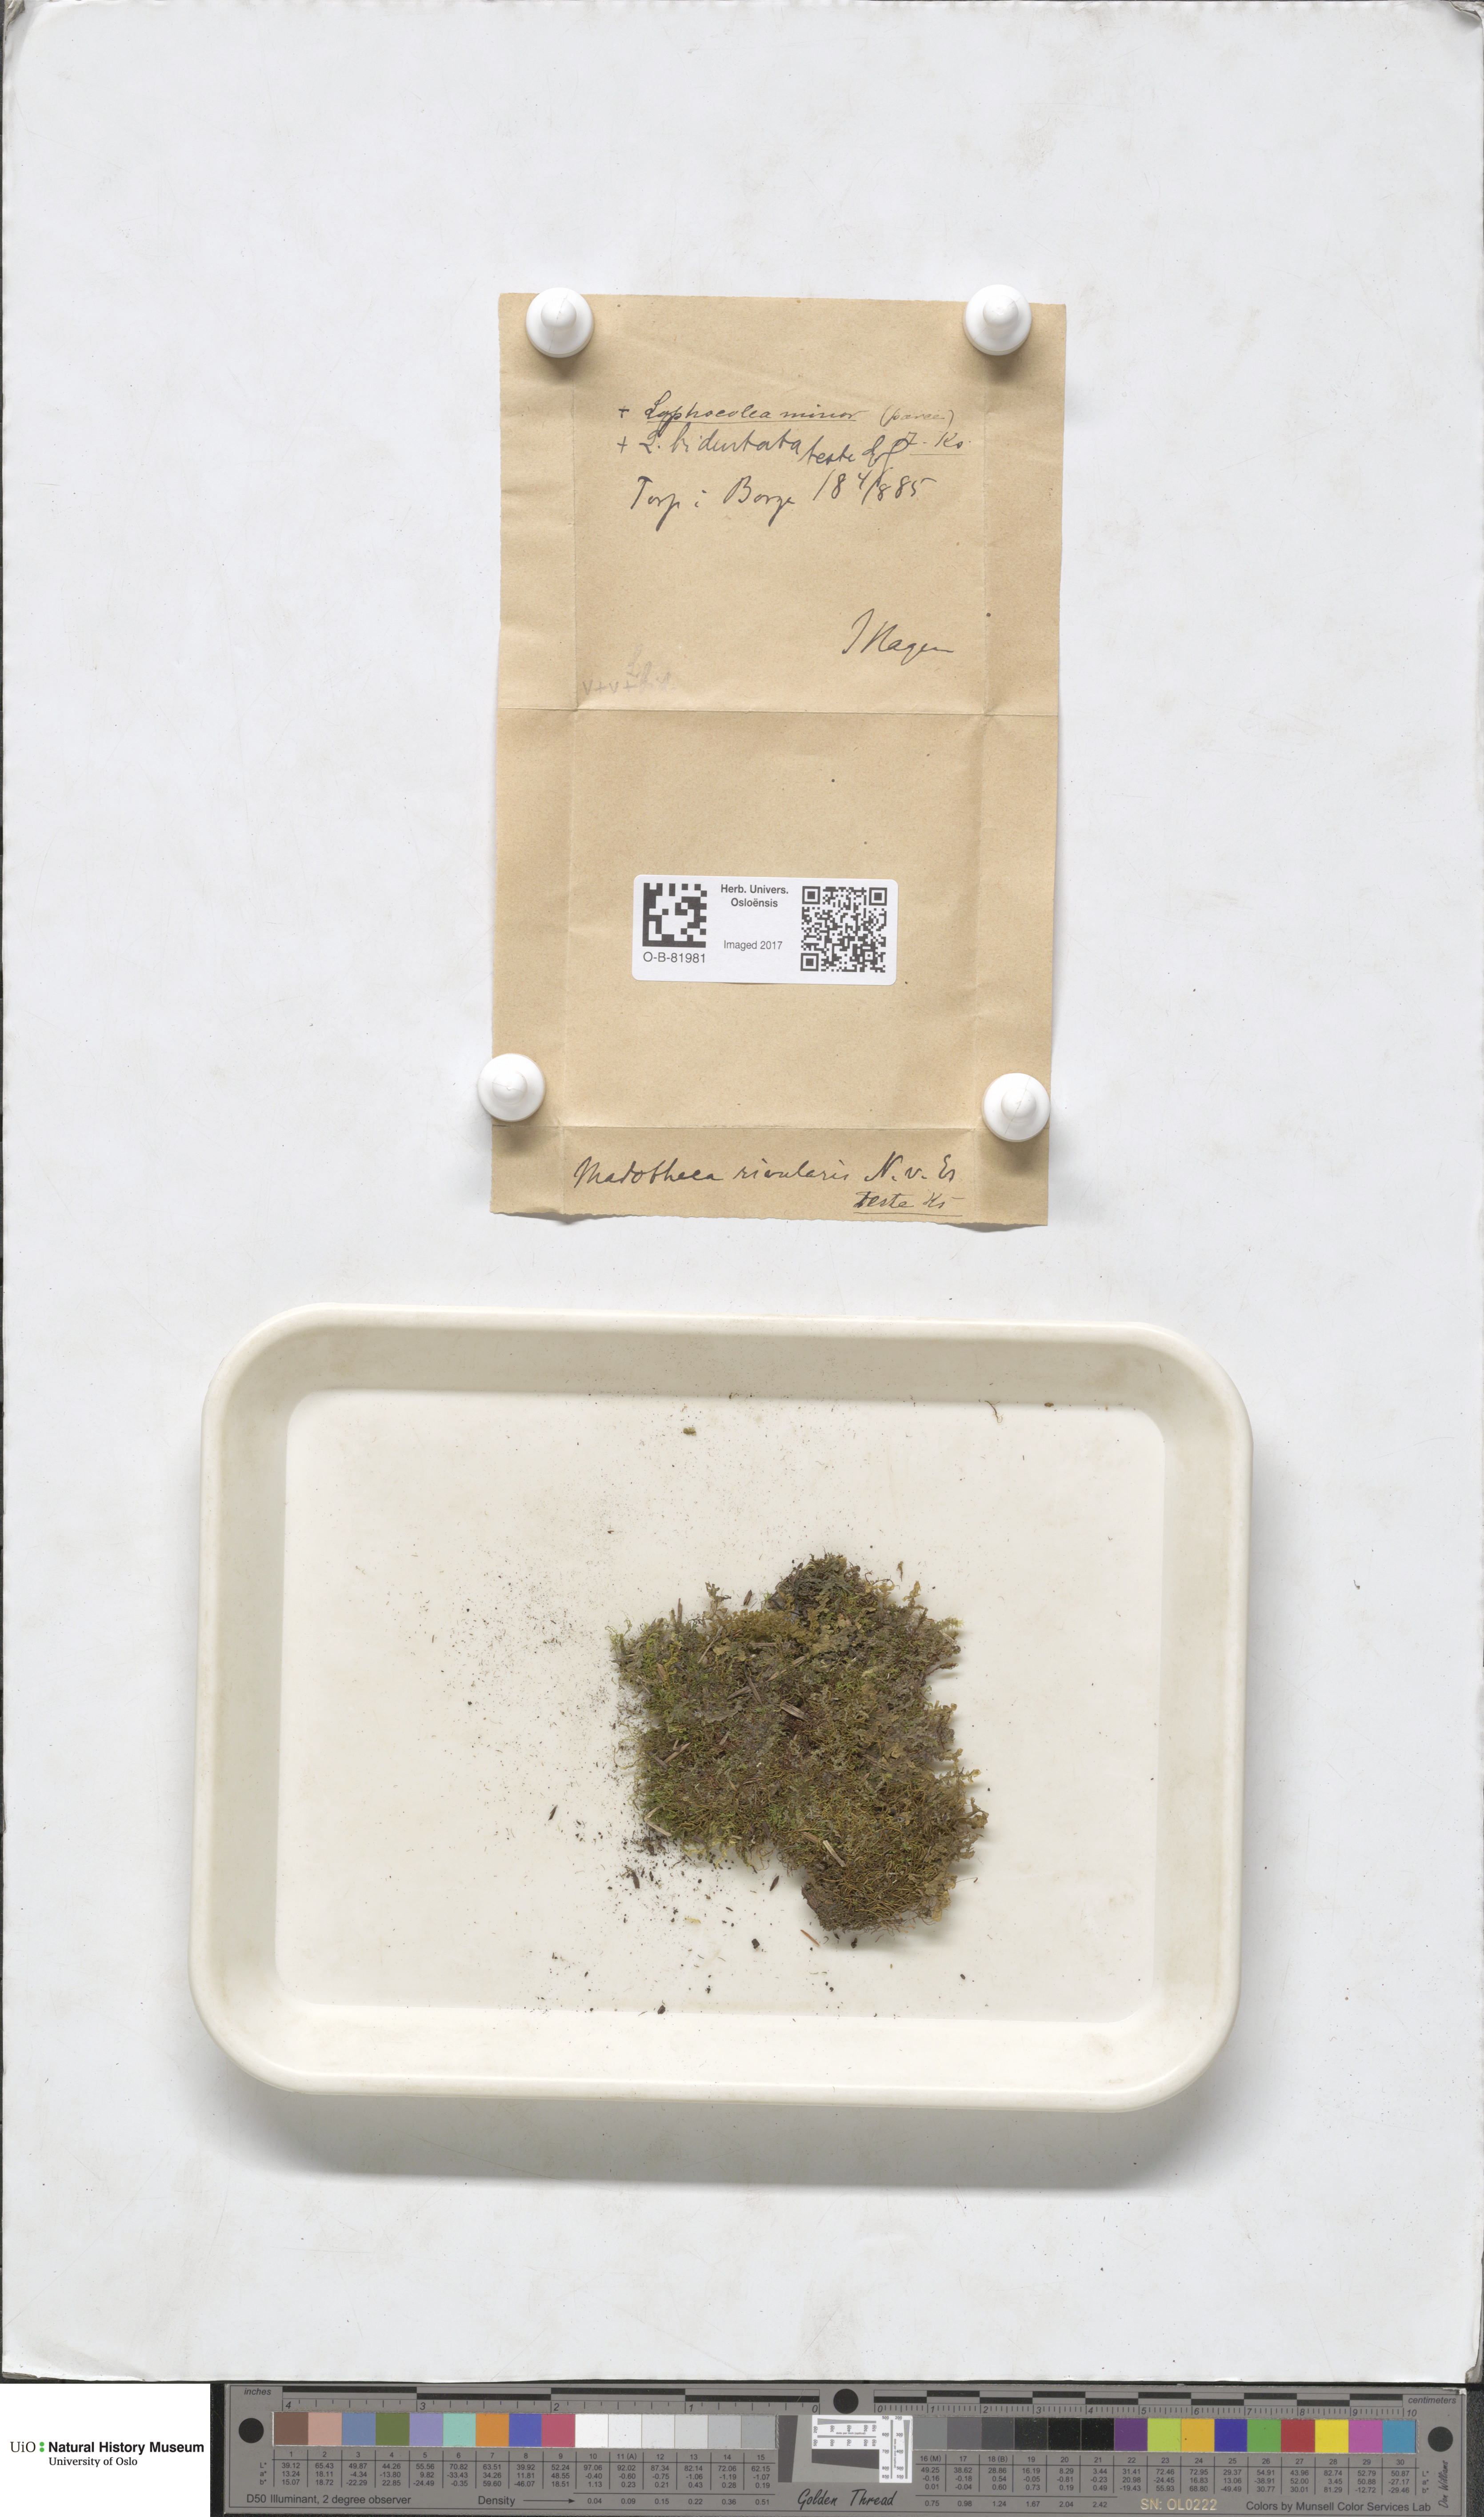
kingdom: Plantae
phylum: Marchantiophyta
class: Jungermanniopsida
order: Porellales
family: Porellaceae
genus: Porella
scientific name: Porella cordaeana
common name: Cliff scalewort
